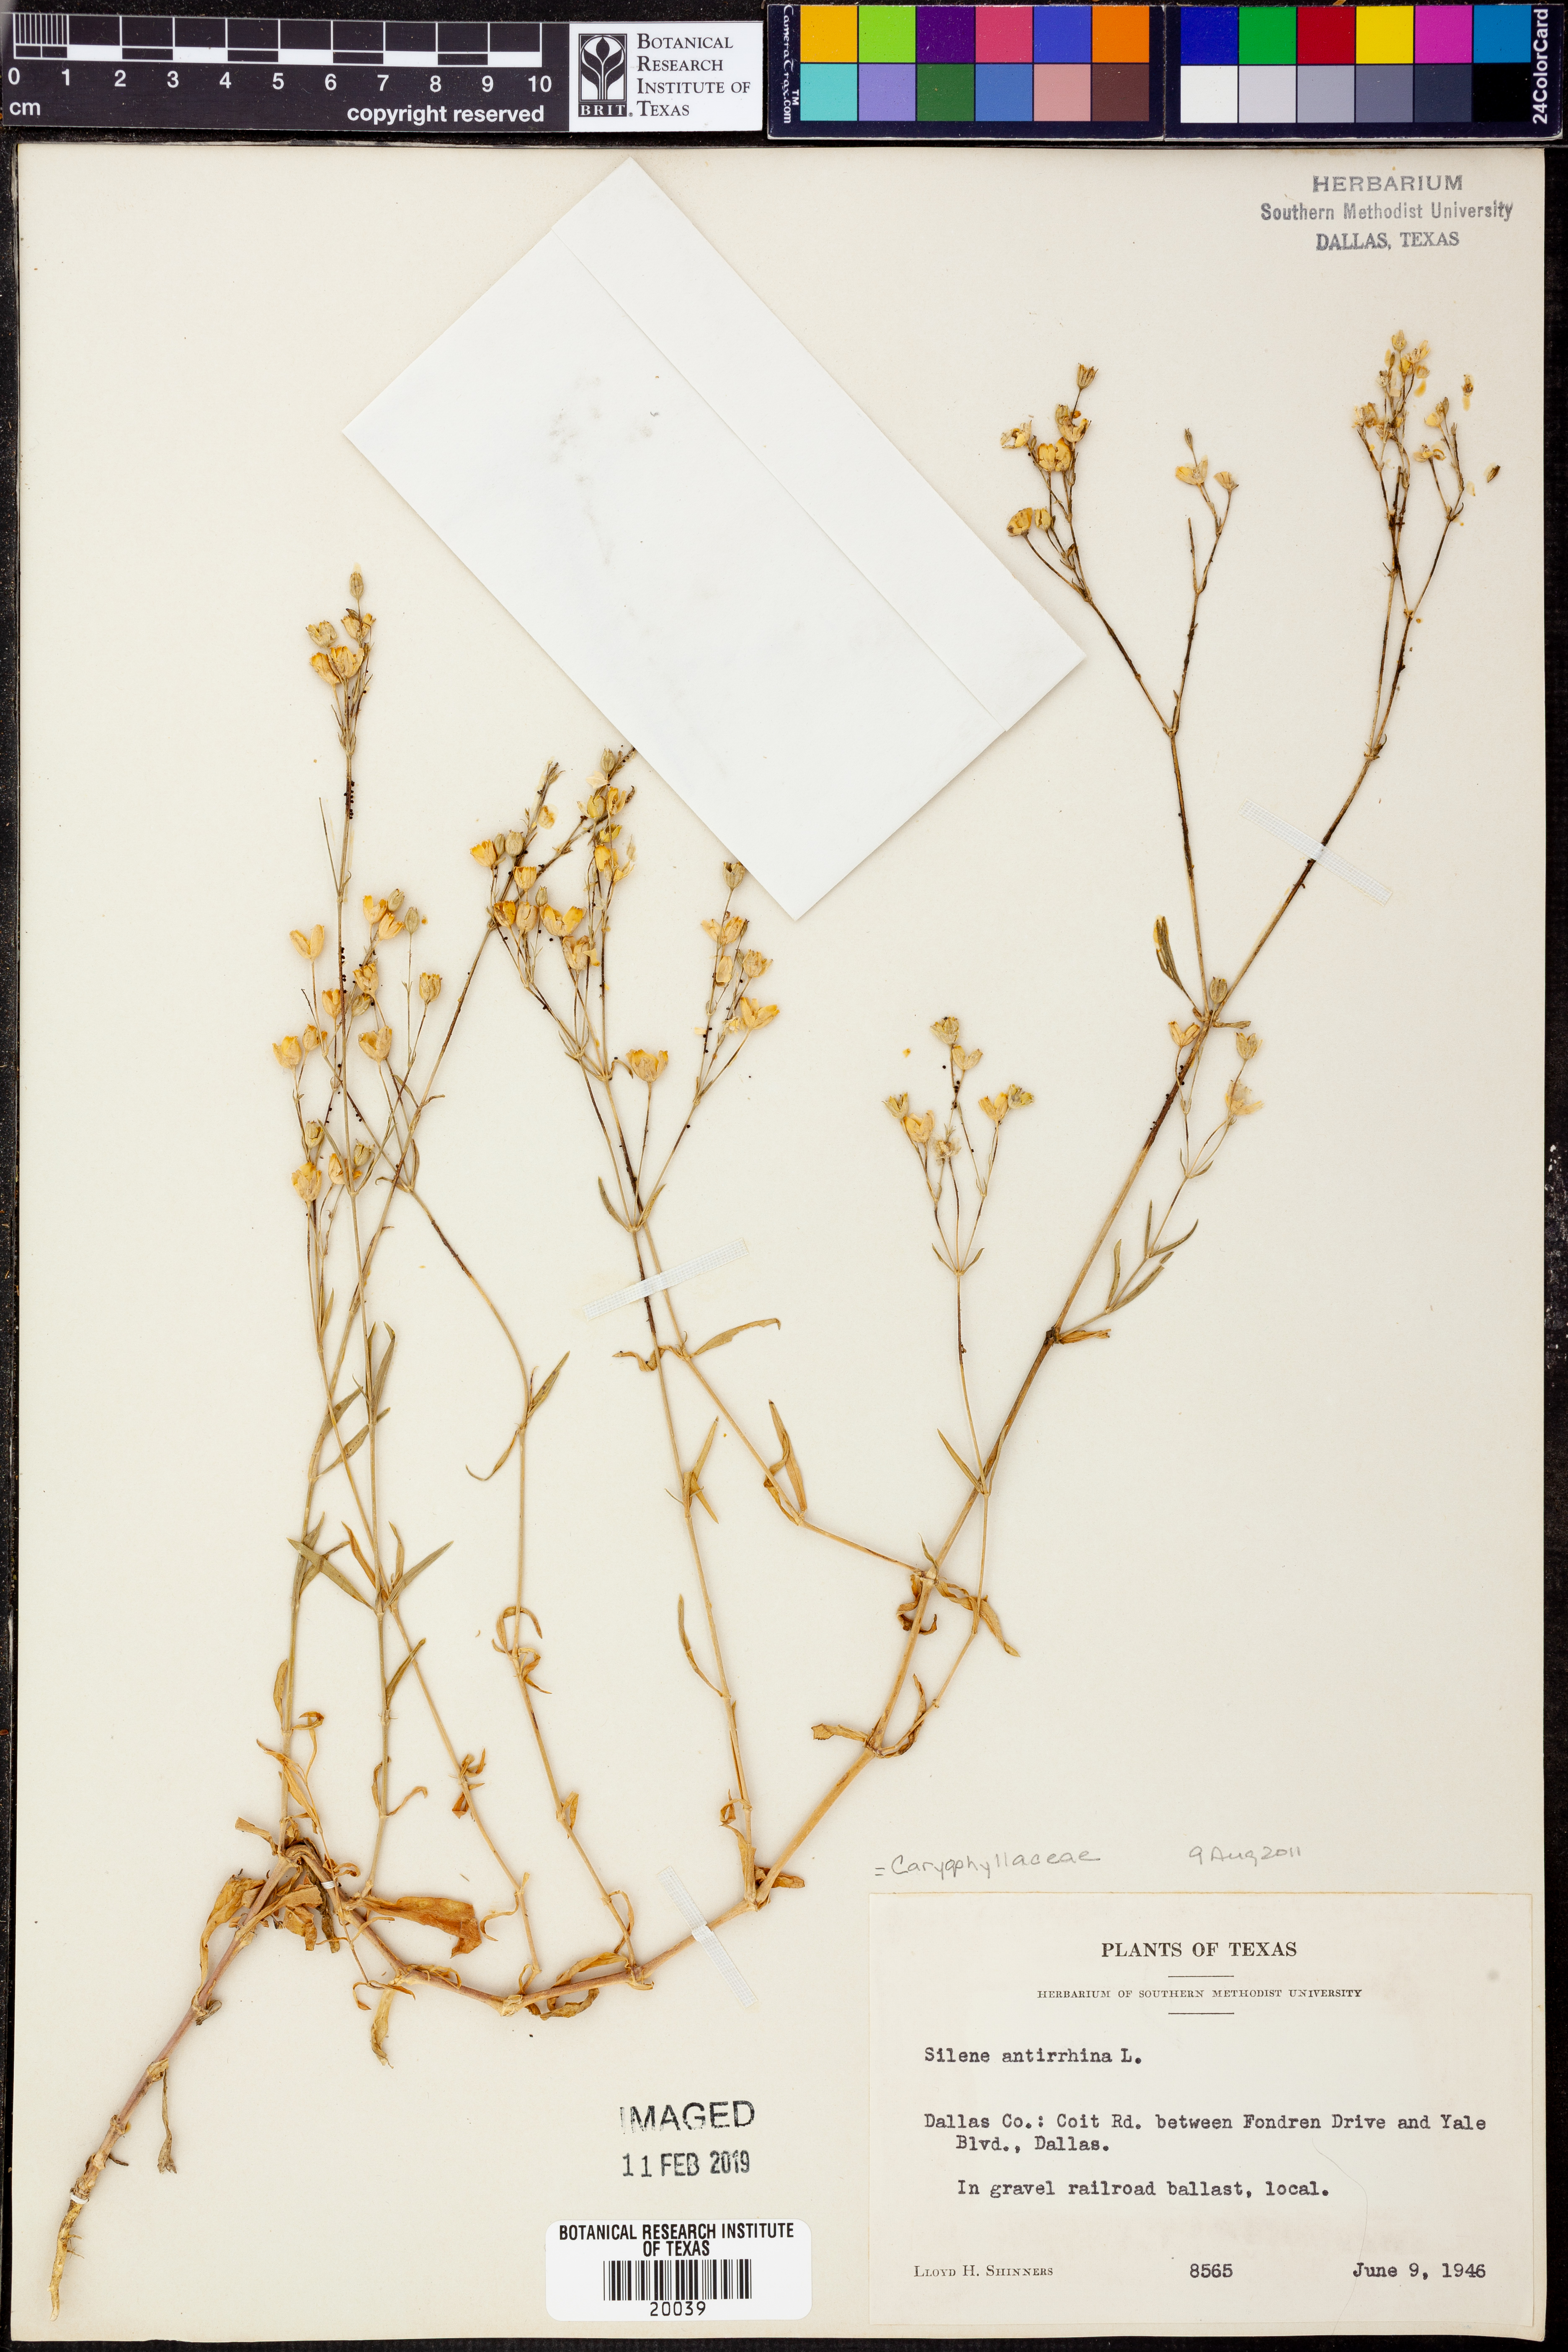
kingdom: Plantae
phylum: Tracheophyta
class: Magnoliopsida
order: Caryophyllales
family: Caryophyllaceae
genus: Silene
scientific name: Silene antirrhina
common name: Sleepy catchfly
